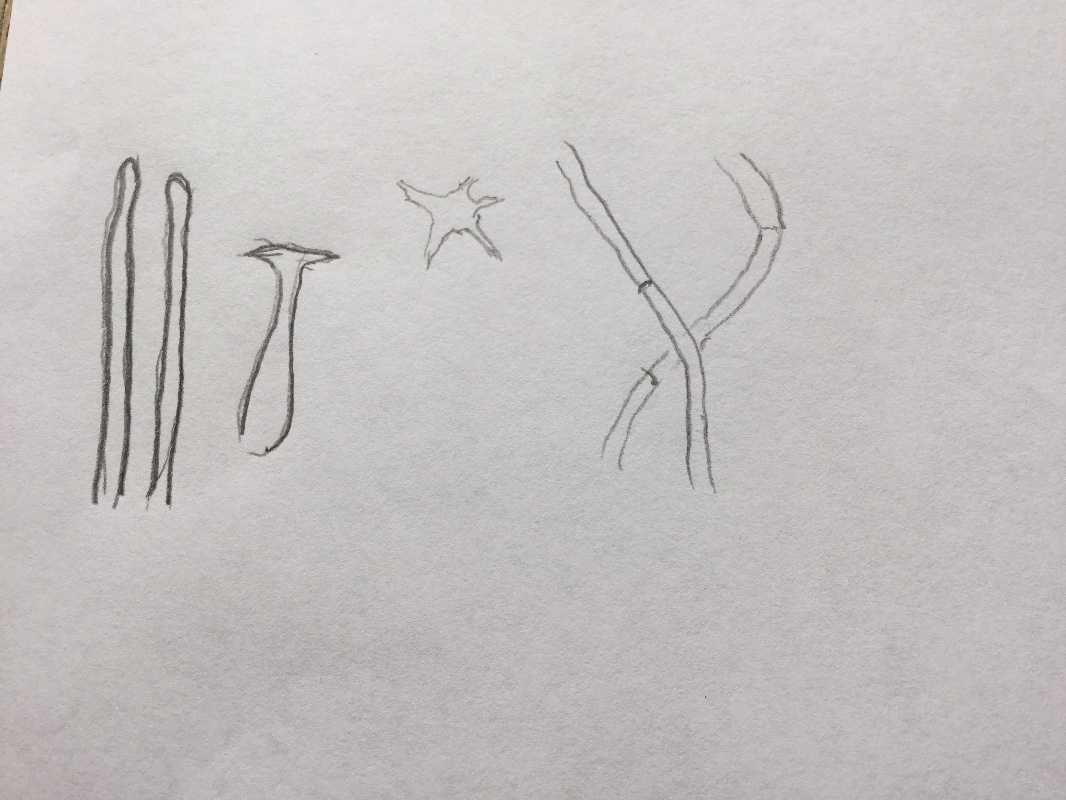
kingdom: Fungi
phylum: Basidiomycota
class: Agaricomycetes
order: Agaricales
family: Pluteaceae
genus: Pluteus
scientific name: Pluteus cervinus
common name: sodfarvet skærmhat
